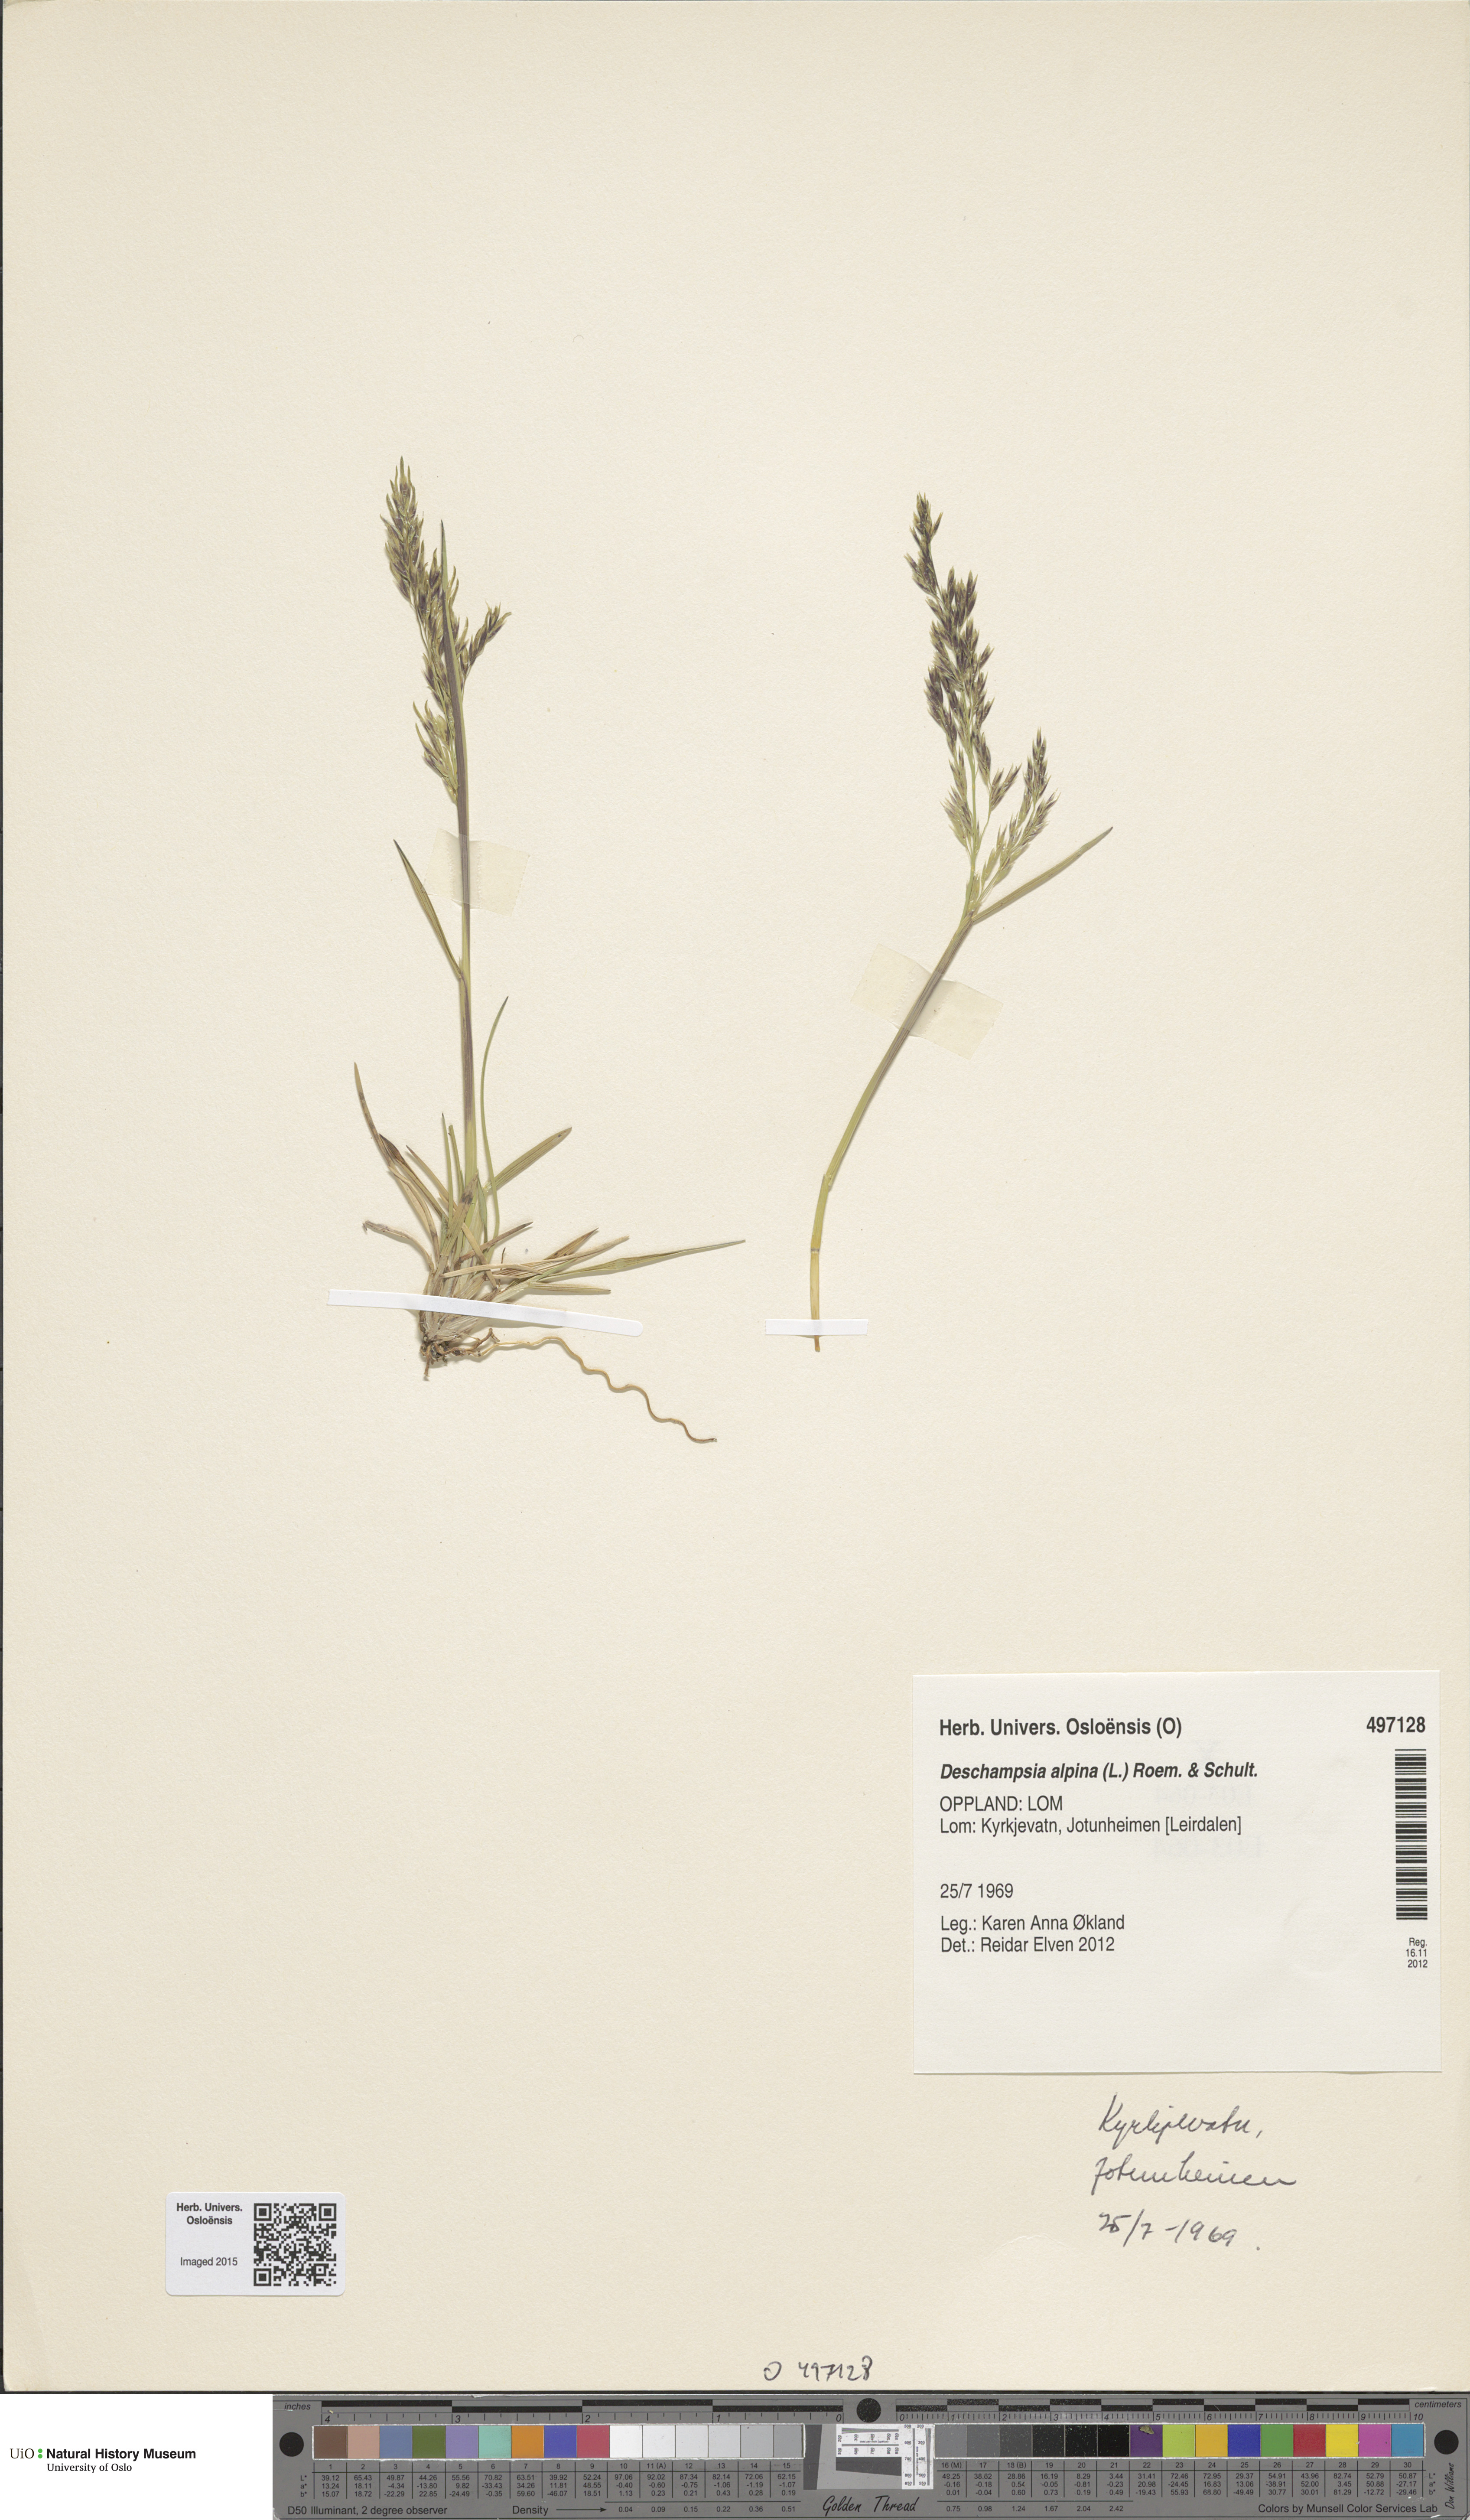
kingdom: Plantae
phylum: Tracheophyta
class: Liliopsida
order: Poales
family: Poaceae
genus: Deschampsia
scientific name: Deschampsia cespitosa
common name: Tufted hair-grass
